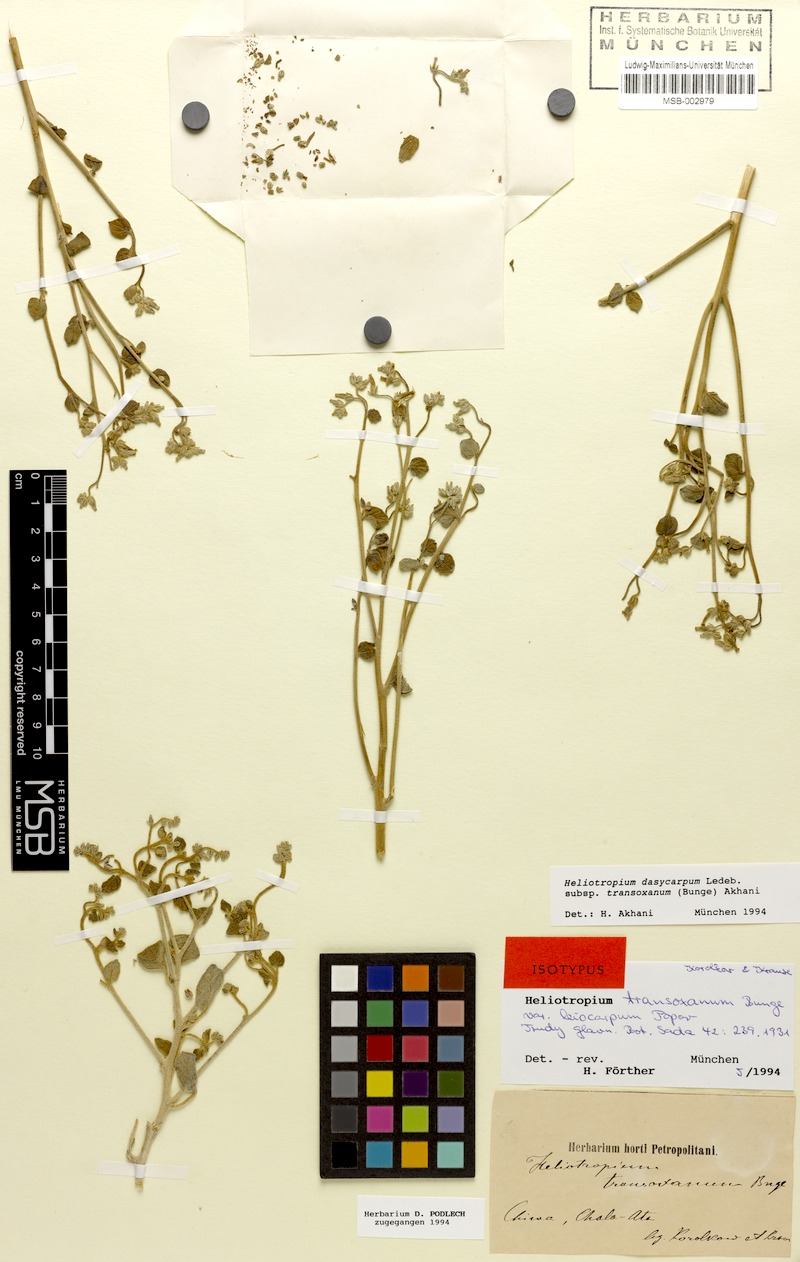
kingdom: Plantae
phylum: Tracheophyta
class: Magnoliopsida
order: Boraginales
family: Heliotropiaceae
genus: Heliotropium
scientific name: Heliotropium dasycarpum
